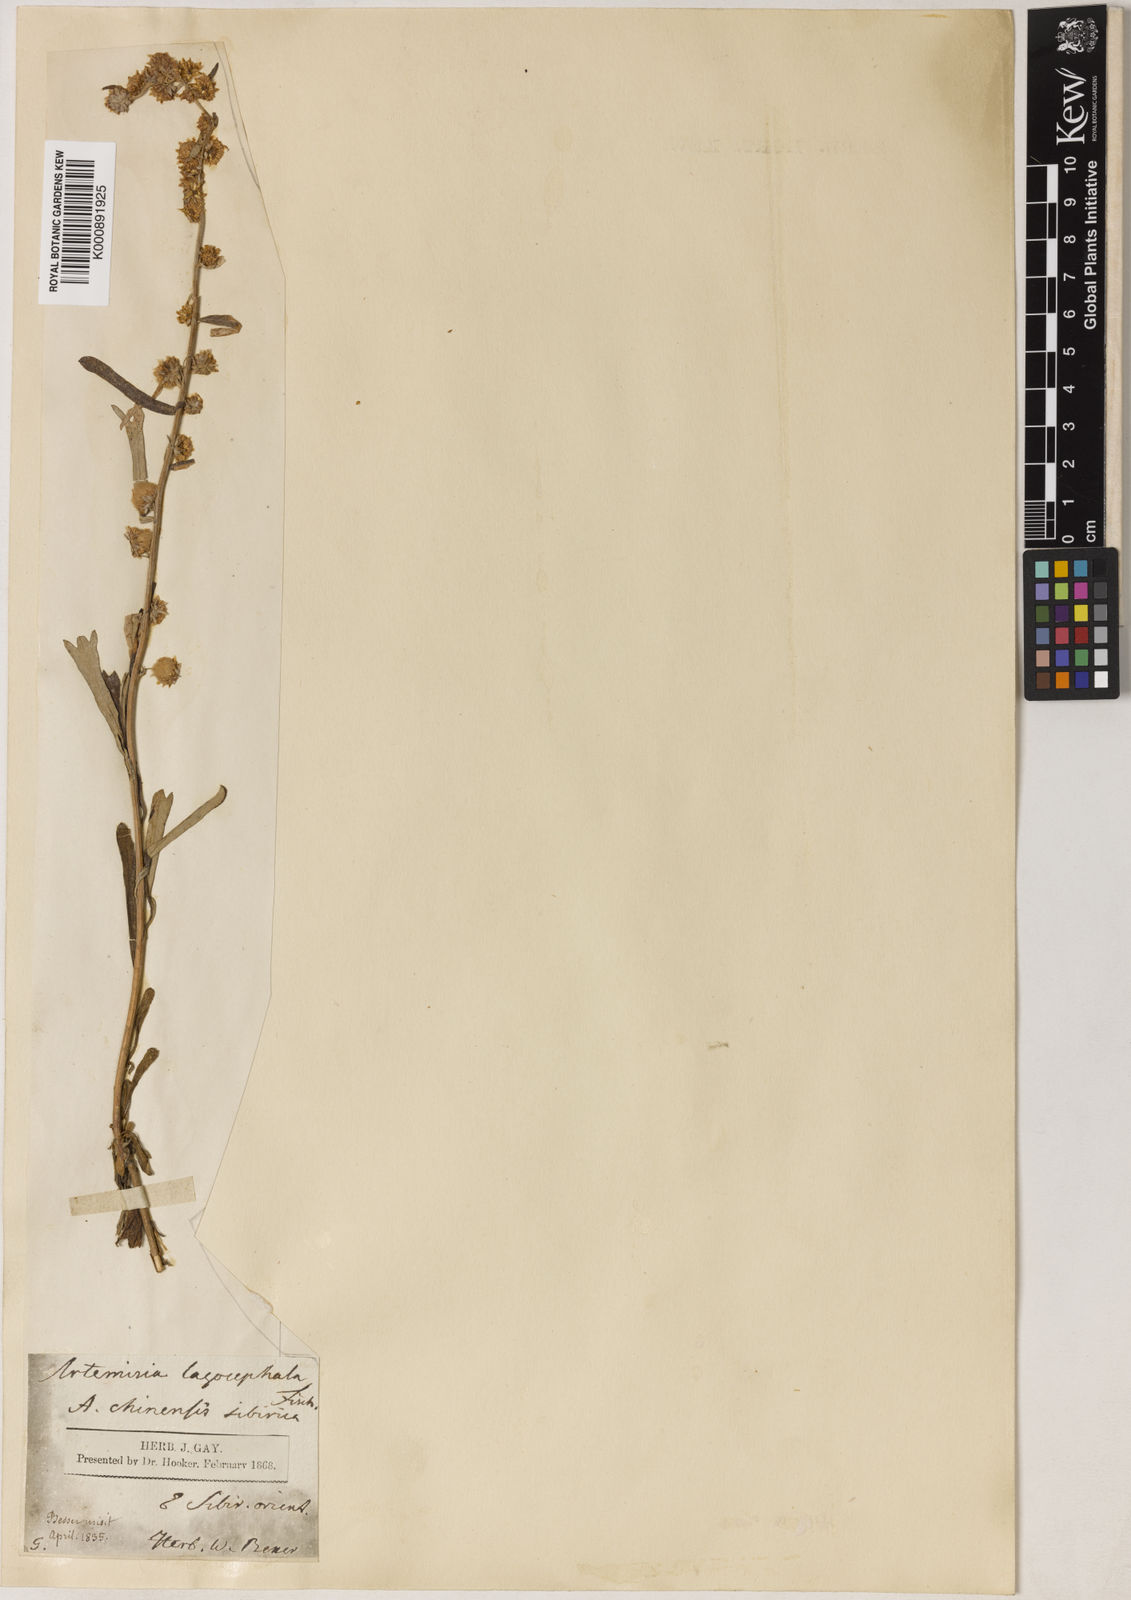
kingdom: Plantae
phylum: Tracheophyta
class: Magnoliopsida
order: Asterales
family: Asteraceae
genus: Artemisia
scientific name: Artemisia lagocephala
